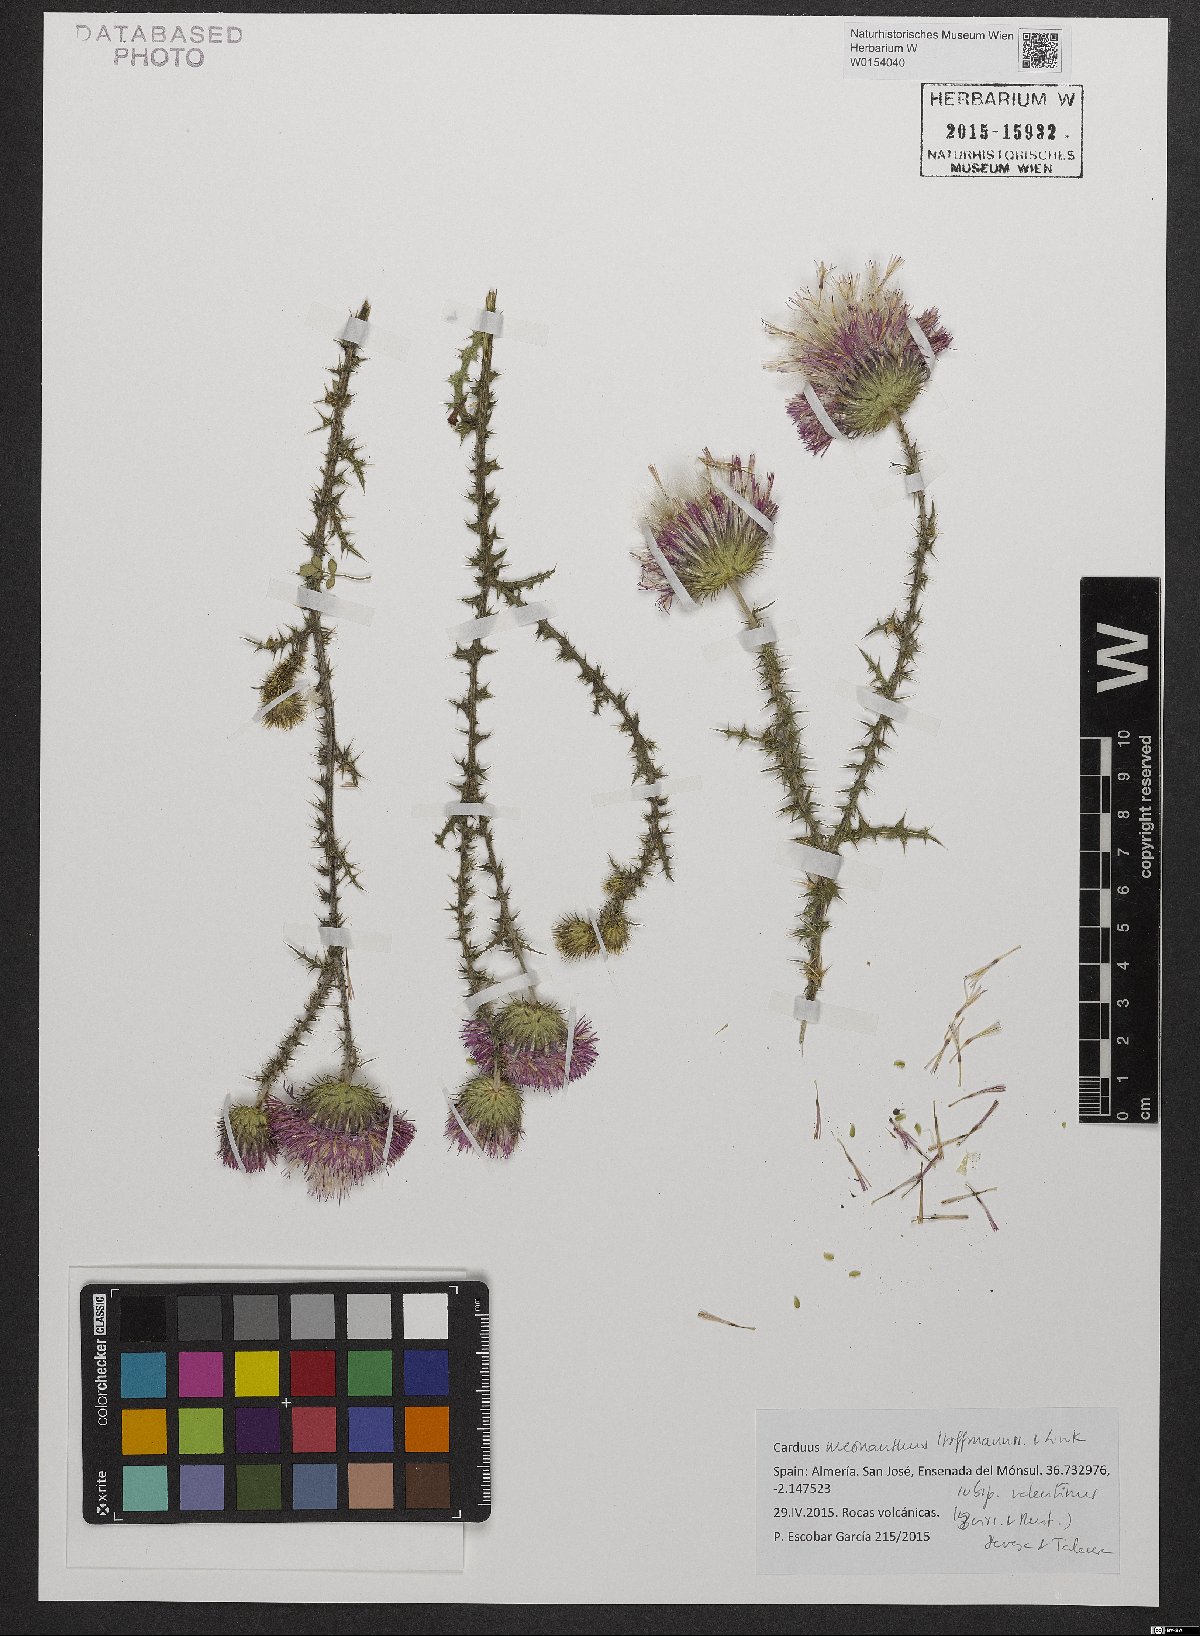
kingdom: Plantae
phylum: Tracheophyta
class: Magnoliopsida
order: Asterales
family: Asteraceae
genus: Carduus
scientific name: Carduus meonanthus
